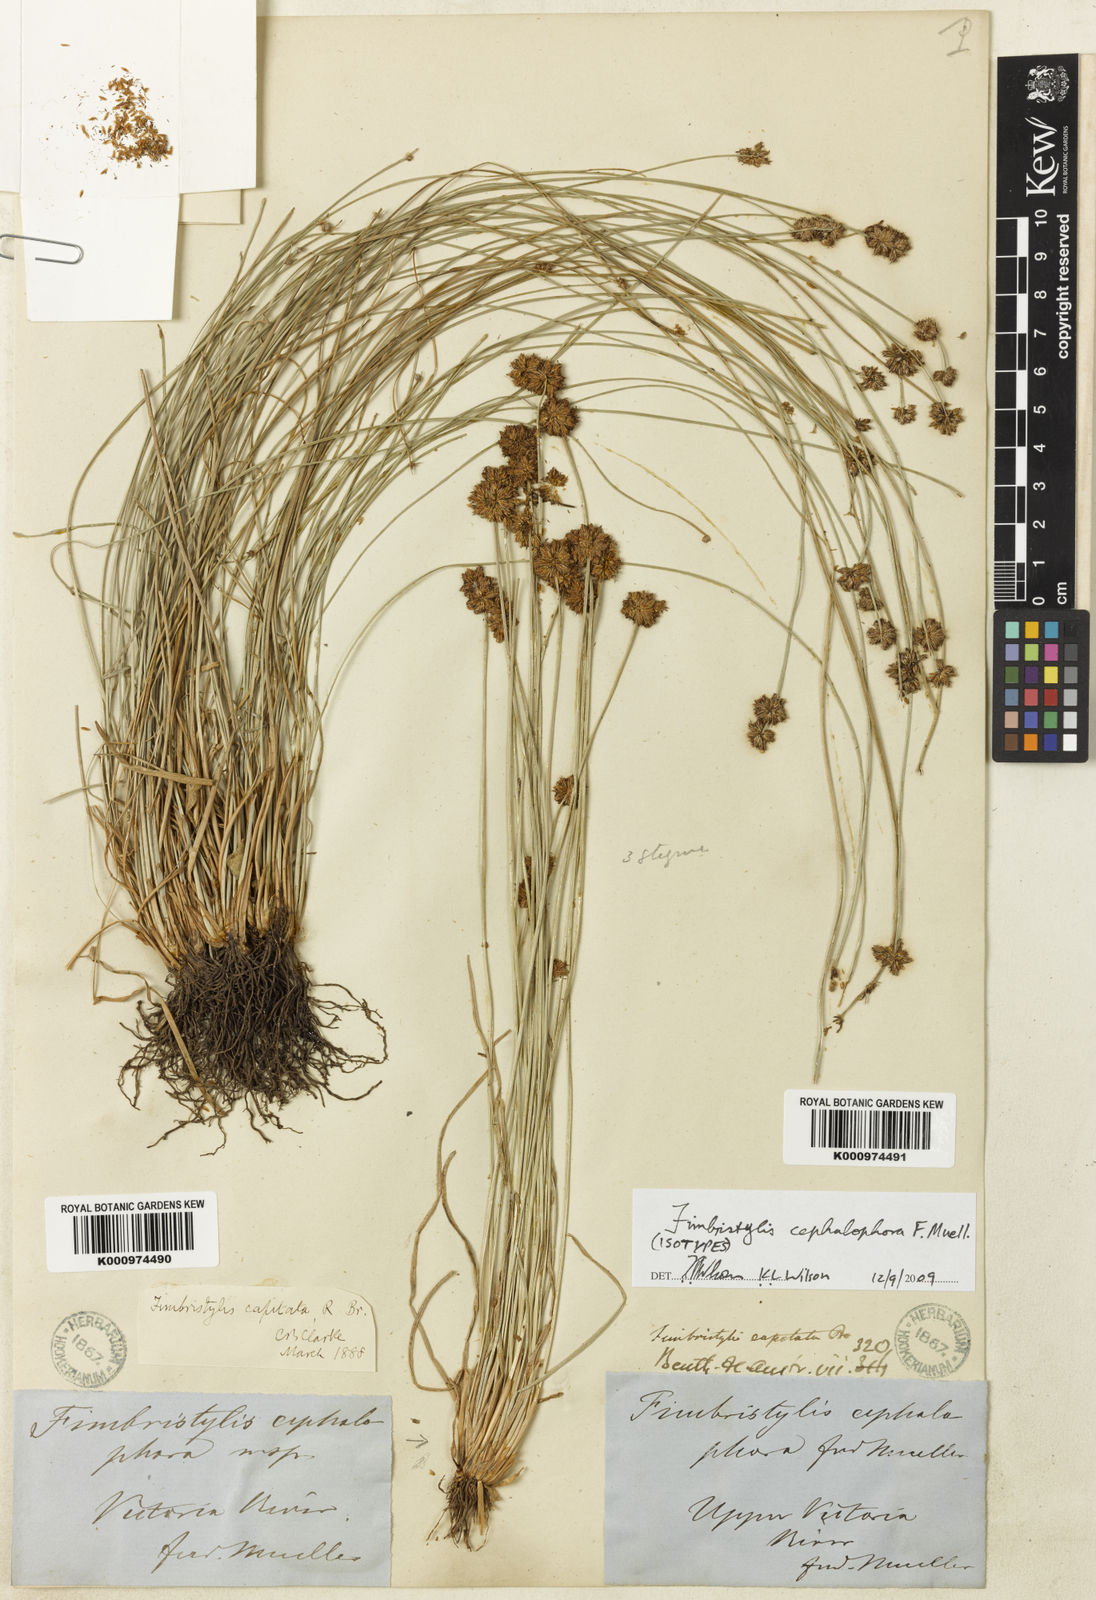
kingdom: Plantae
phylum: Tracheophyta
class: Liliopsida
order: Poales
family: Cyperaceae
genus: Fimbristylis
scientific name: Fimbristylis cephalophora
